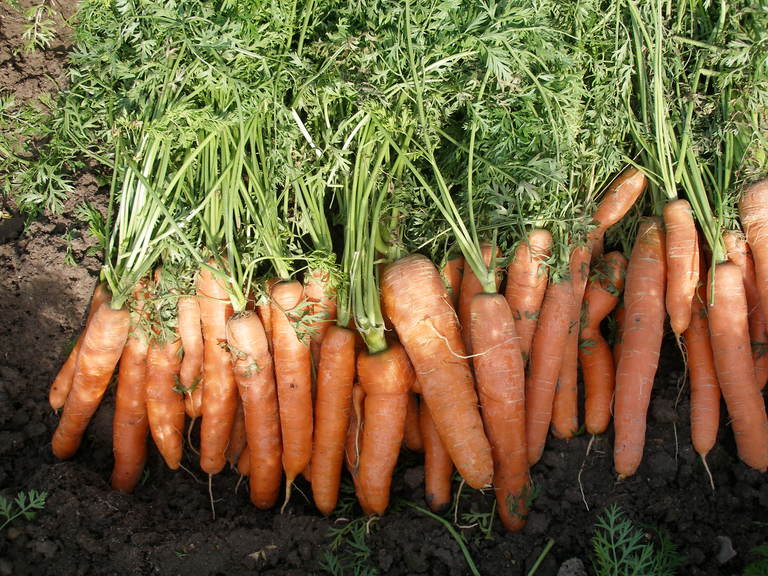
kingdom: Plantae
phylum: Tracheophyta
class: Magnoliopsida
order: Apiales
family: Apiaceae
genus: Daucus
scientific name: Daucus carota
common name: Wild carrot
